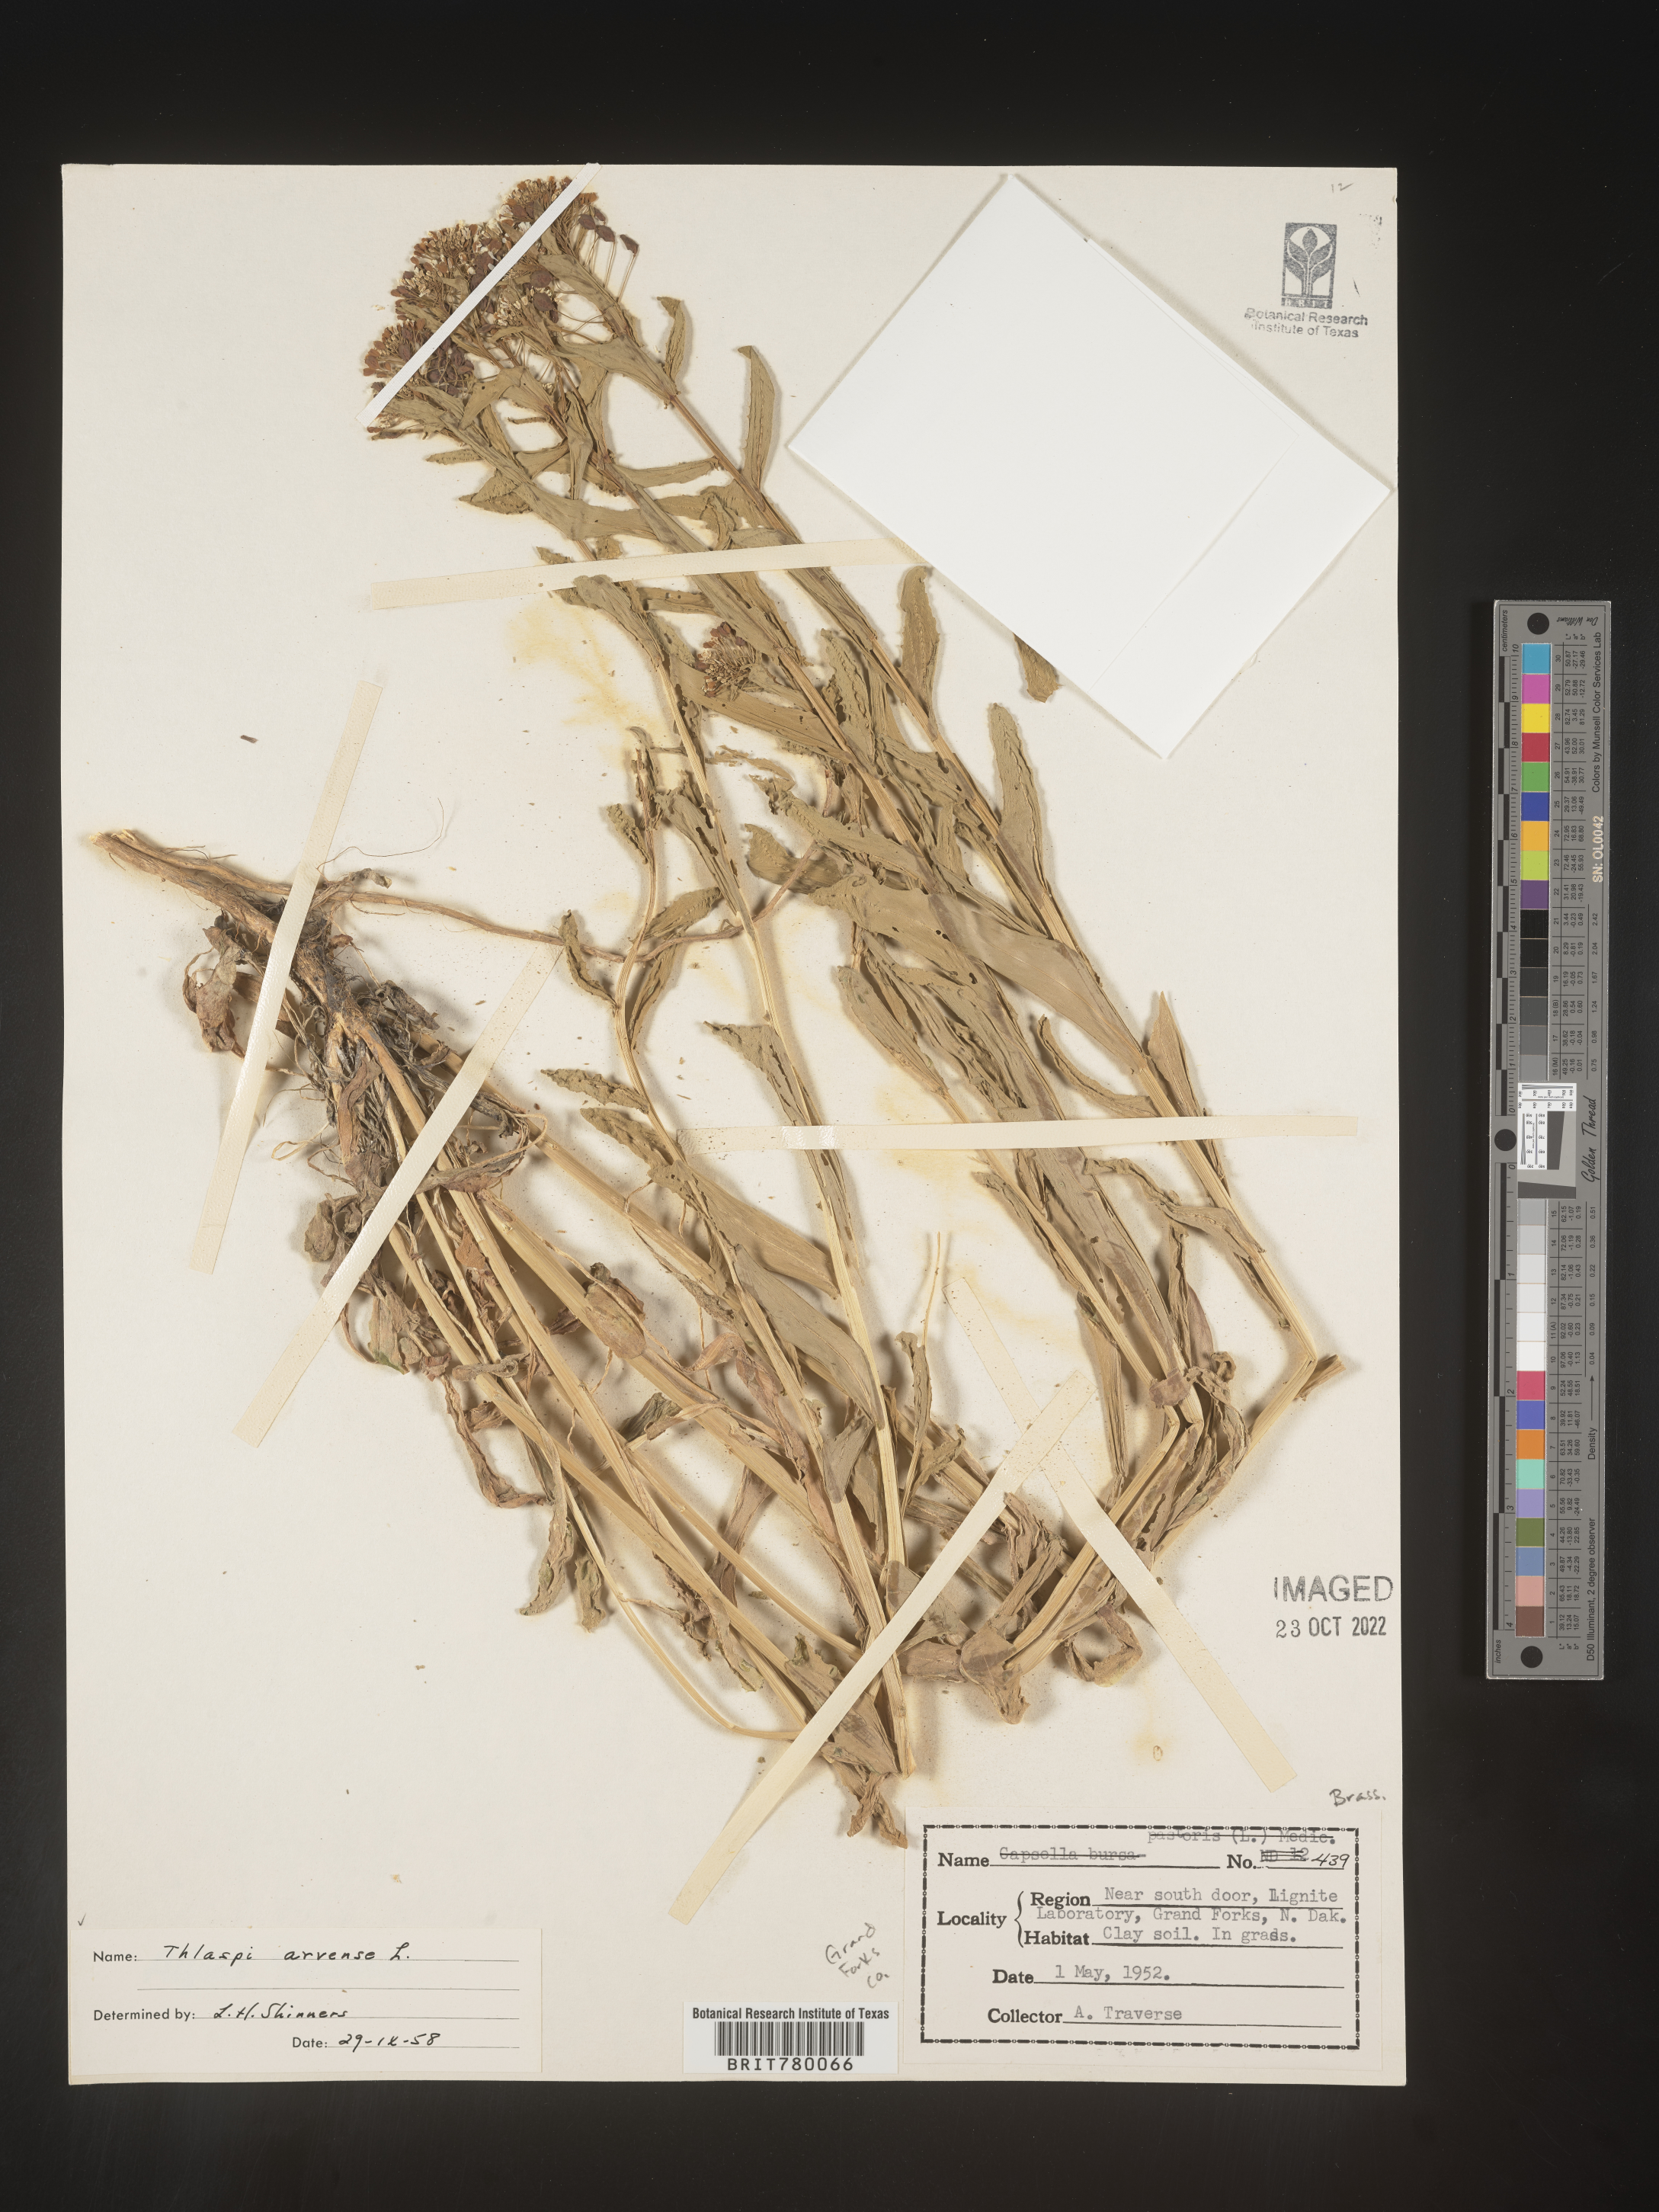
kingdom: Plantae
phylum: Tracheophyta
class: Magnoliopsida
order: Brassicales
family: Brassicaceae
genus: Thlaspi
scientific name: Thlaspi arvense
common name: Field pennycress
